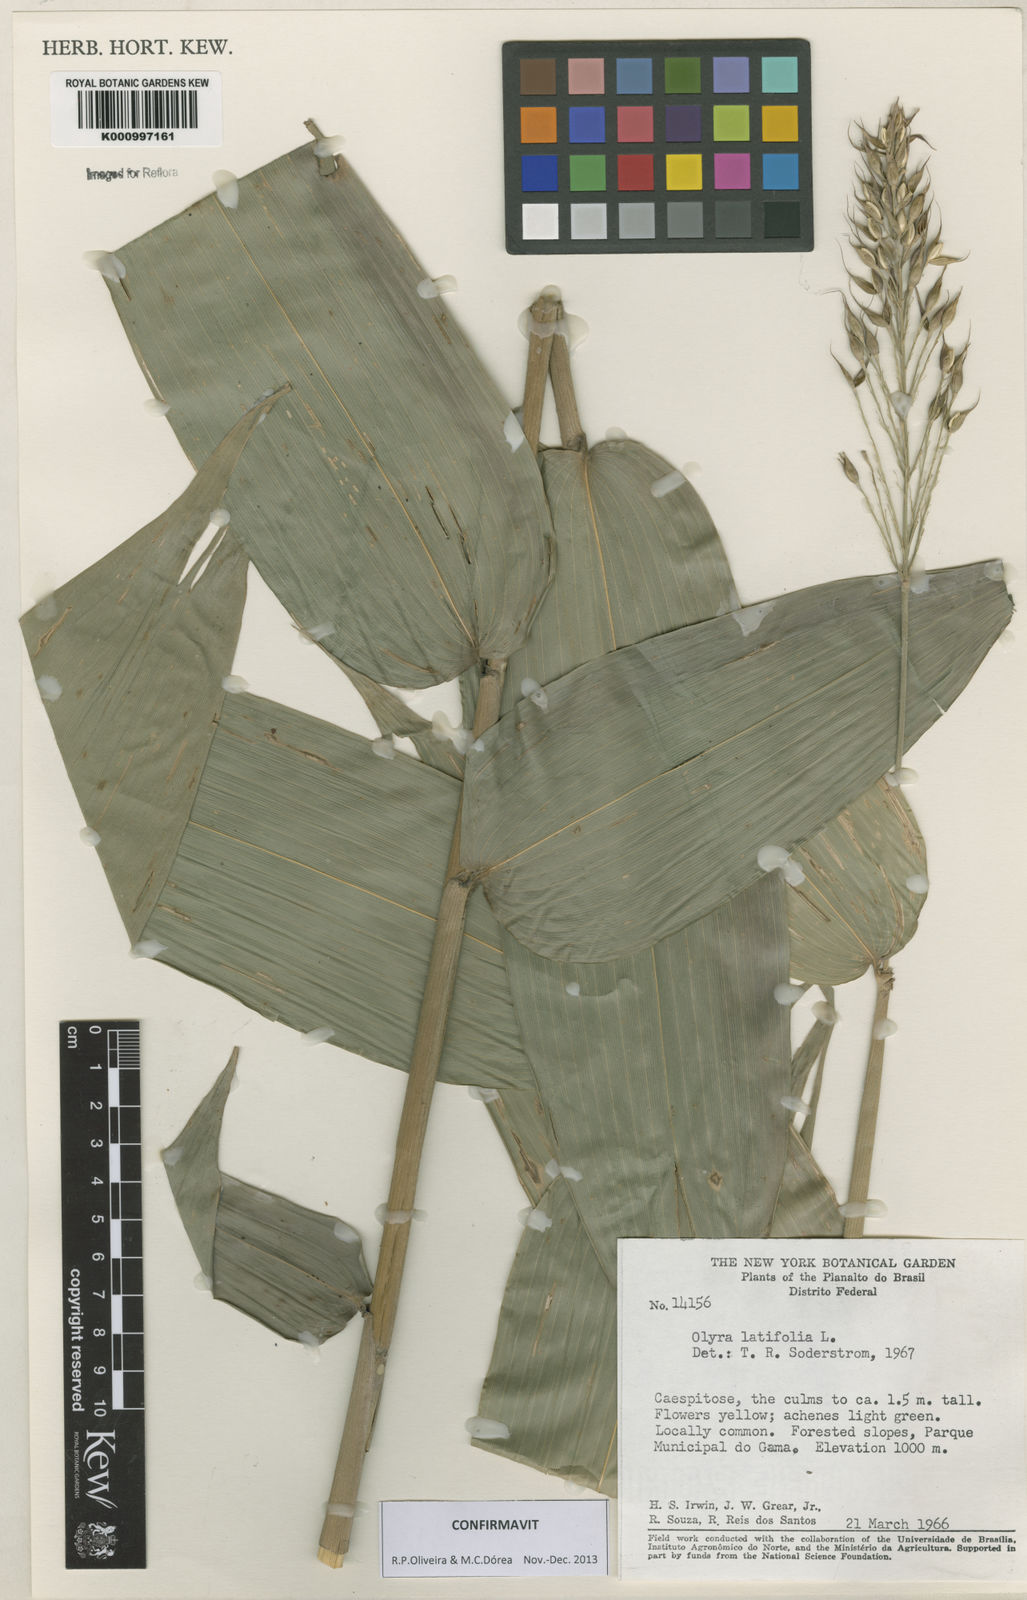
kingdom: Plantae
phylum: Tracheophyta
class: Liliopsida
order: Poales
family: Poaceae
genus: Olyra
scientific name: Olyra latifolia
